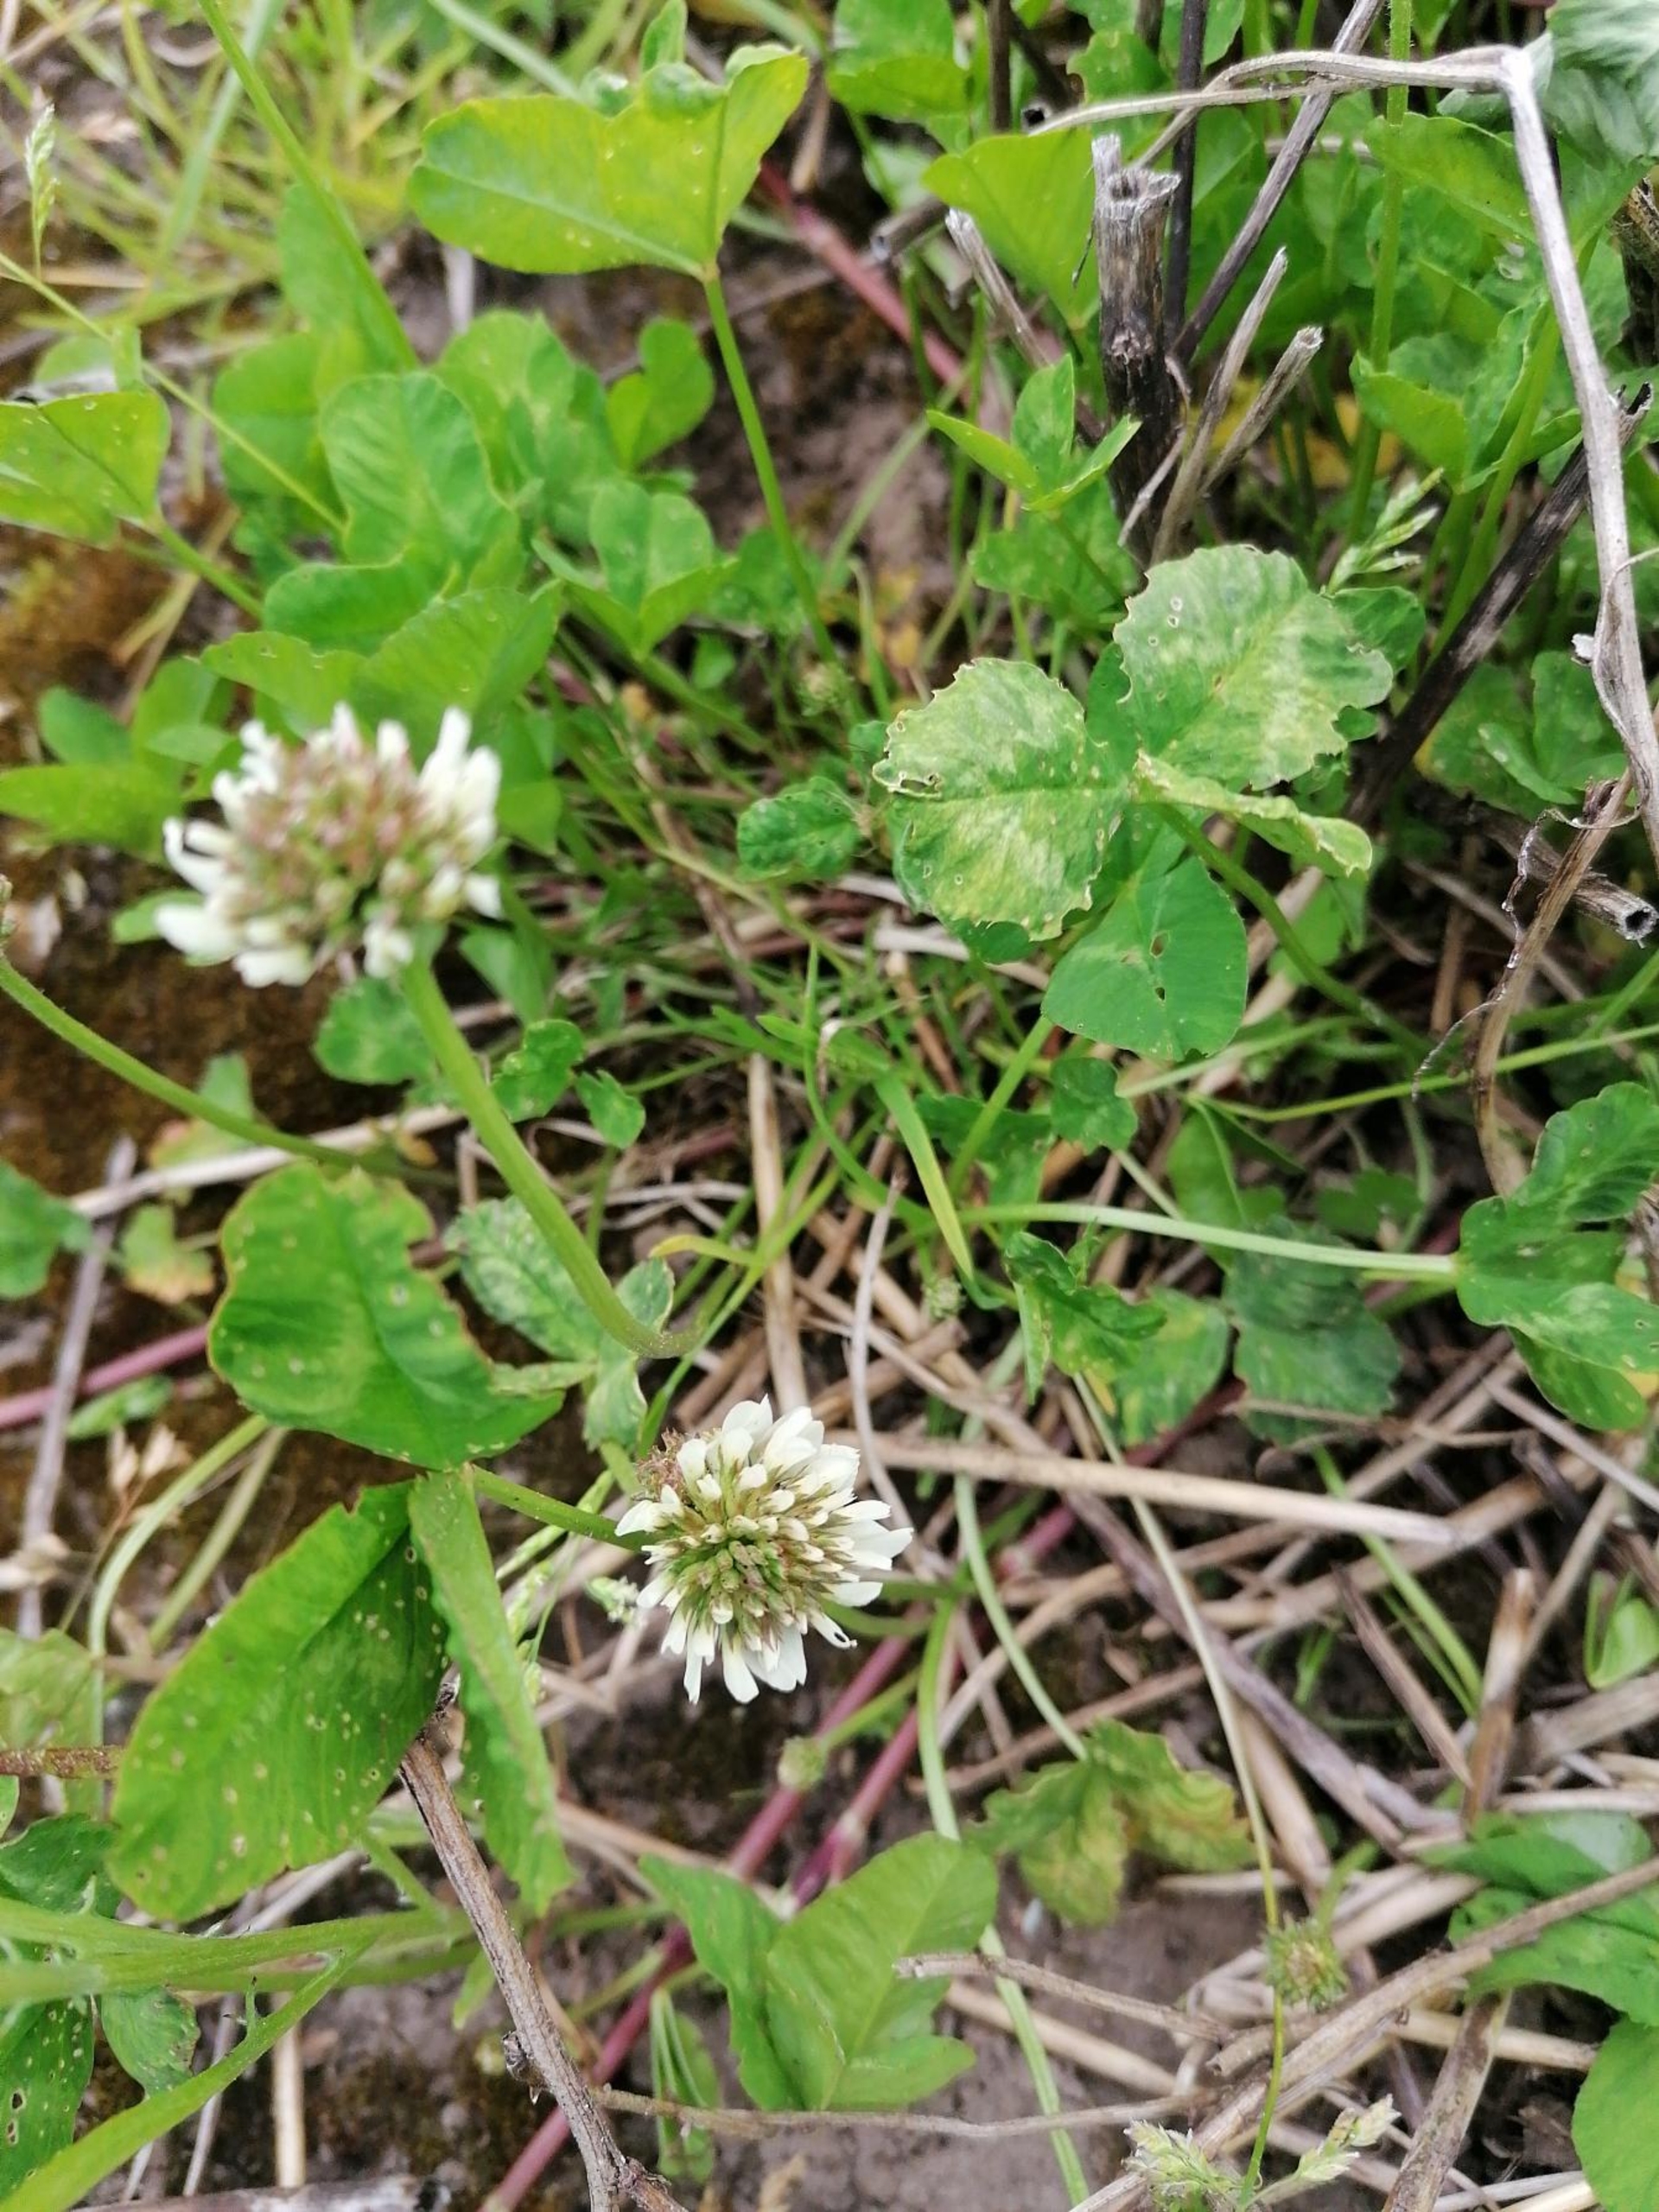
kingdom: Plantae
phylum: Tracheophyta
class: Magnoliopsida
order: Fabales
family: Fabaceae
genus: Trifolium
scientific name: Trifolium repens
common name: Hvid-kløver
